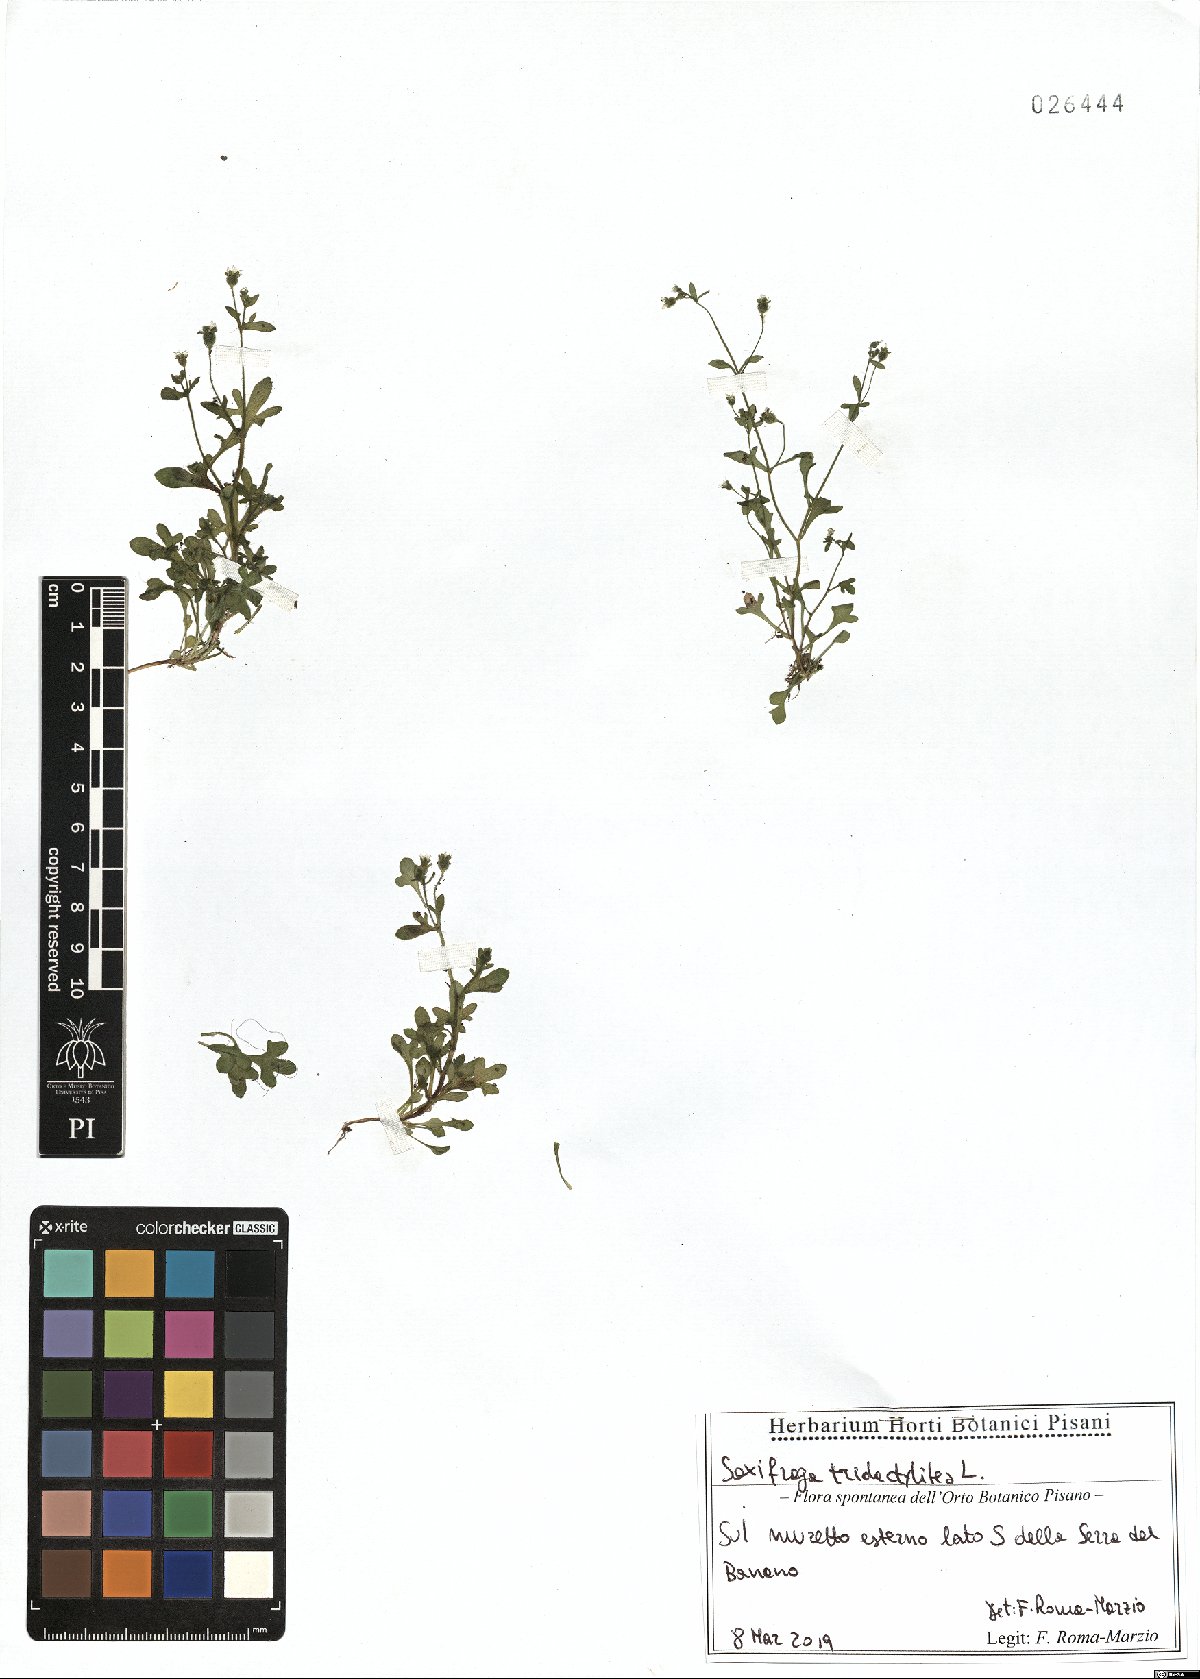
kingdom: Plantae
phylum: Tracheophyta
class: Magnoliopsida
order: Saxifragales
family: Saxifragaceae
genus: Saxifraga
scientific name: Saxifraga tridactylites
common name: Rue-leaved saxifrage
